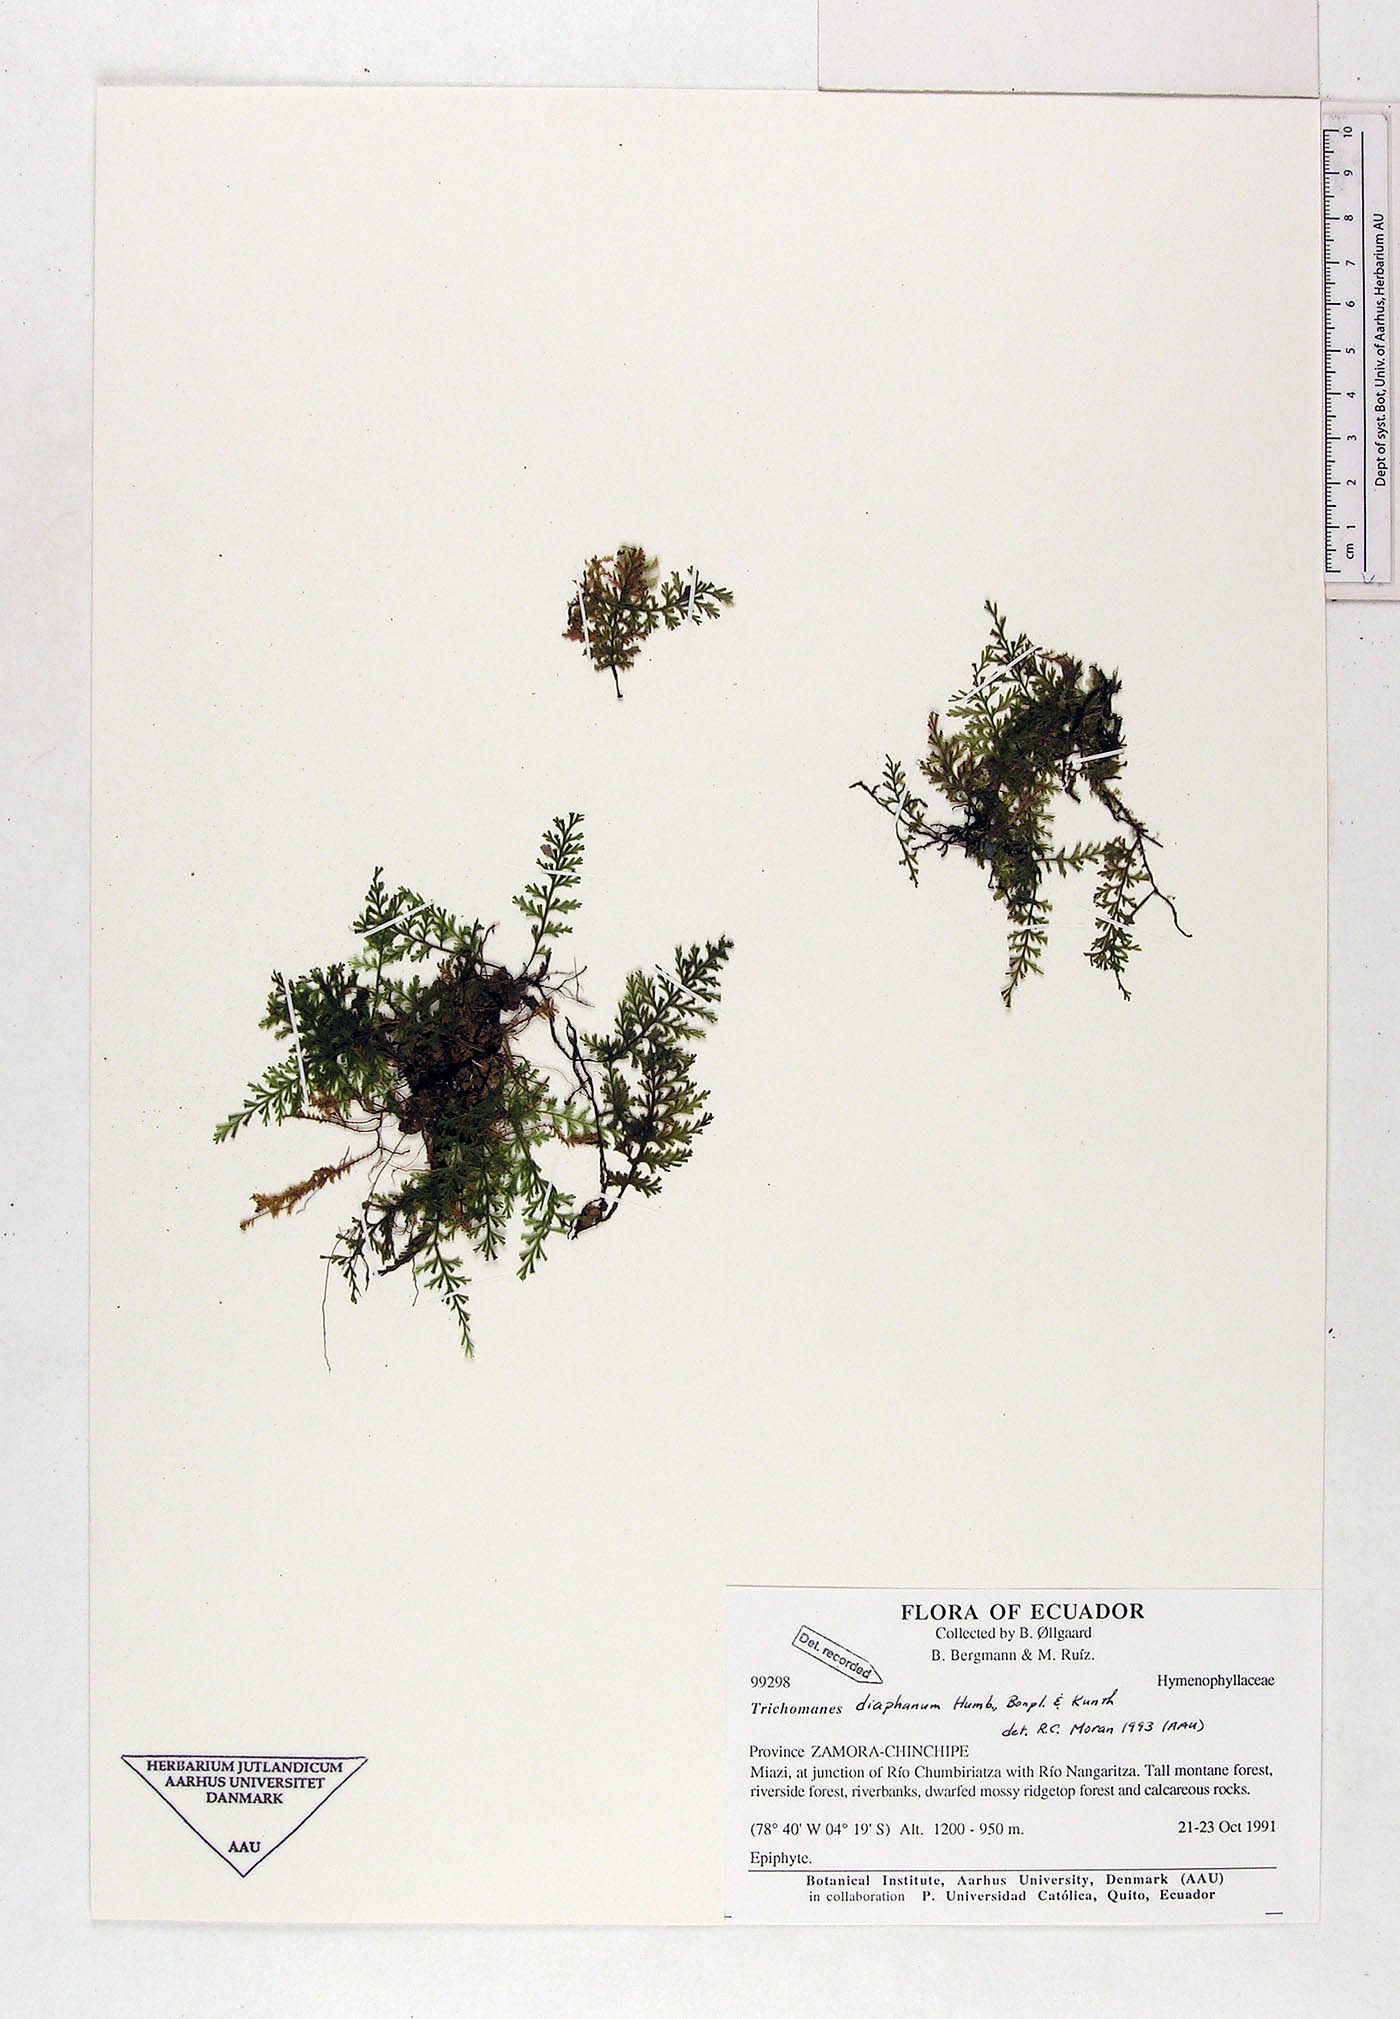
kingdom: Plantae
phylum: Tracheophyta
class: Polypodiopsida
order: Hymenophyllales
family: Hymenophyllaceae
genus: Polyphlebium
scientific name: Polyphlebium diaphanum
